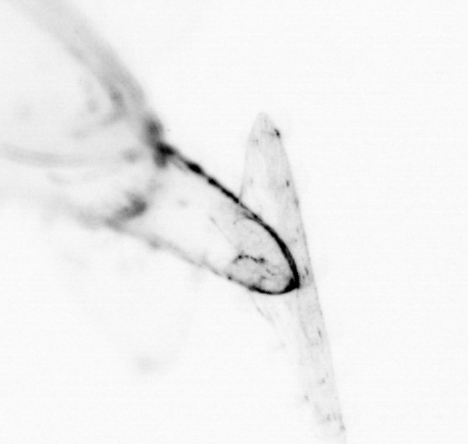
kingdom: Animalia
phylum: Chaetognatha
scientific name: Chaetognatha
